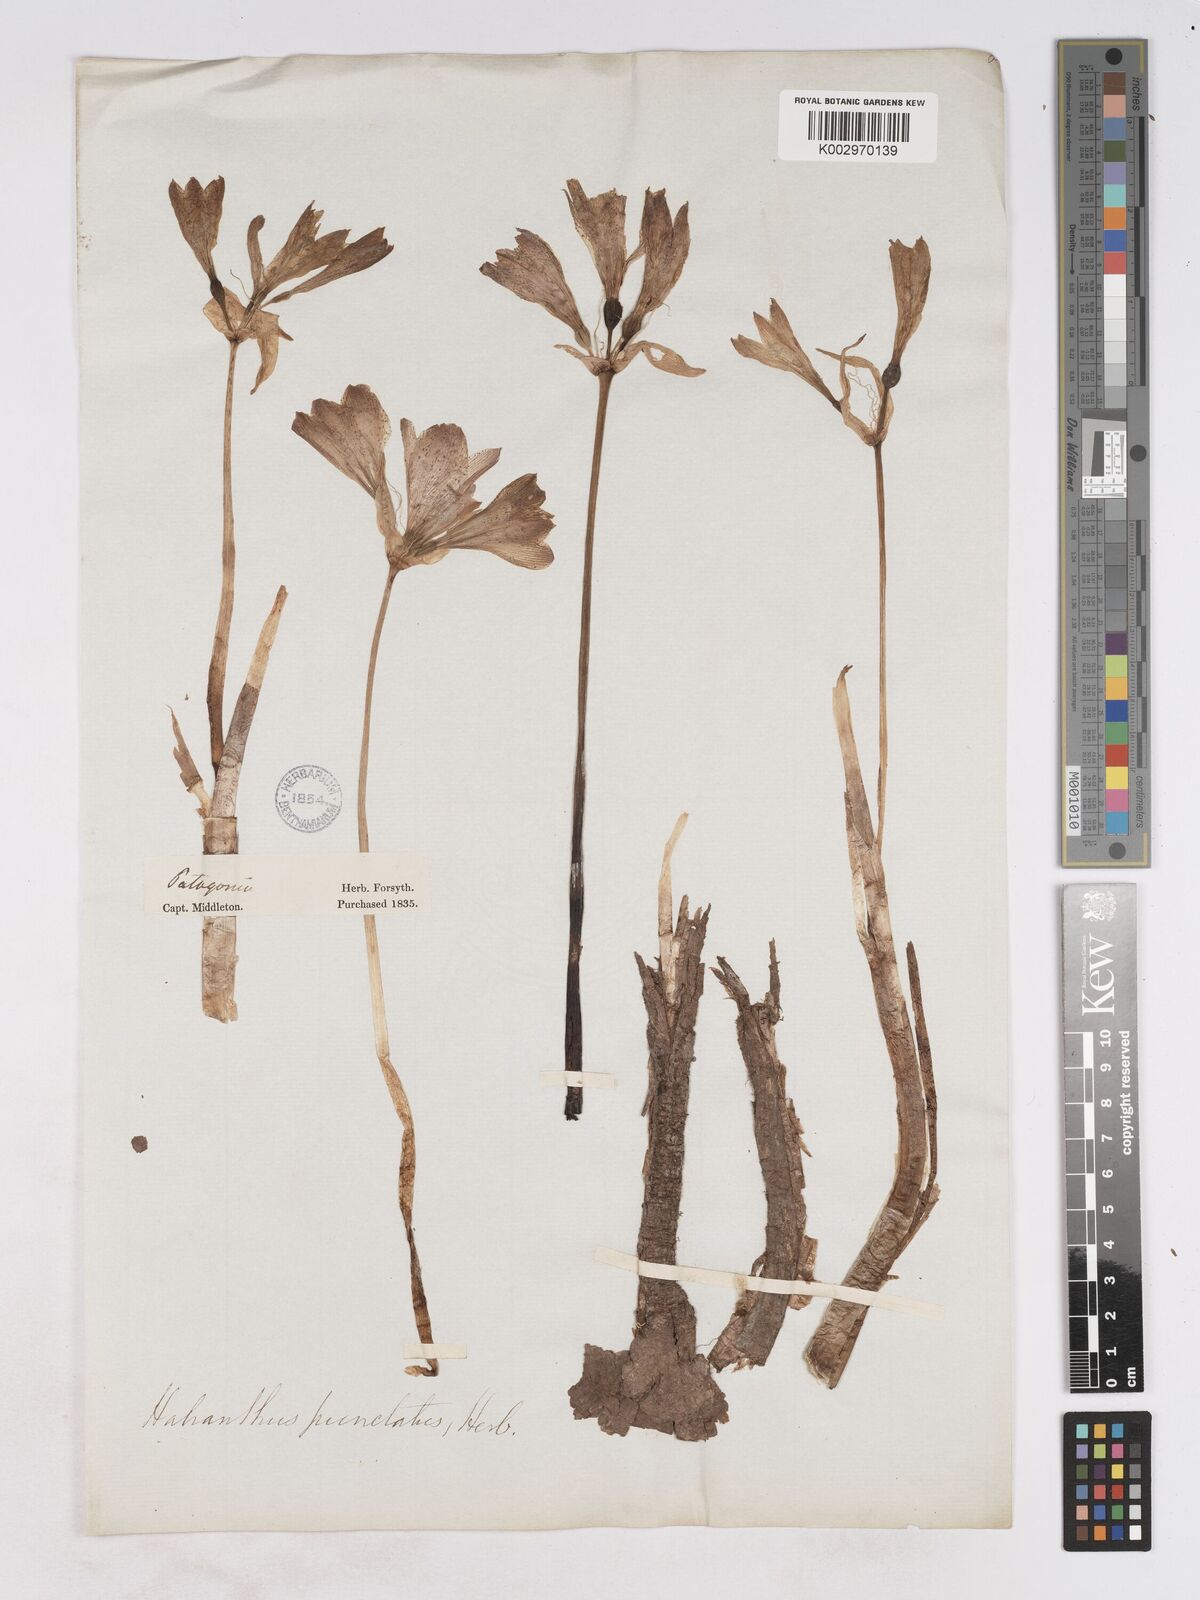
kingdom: Plantae
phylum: Tracheophyta
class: Liliopsida
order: Asparagales
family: Amaryllidaceae
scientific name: Amaryllidaceae
